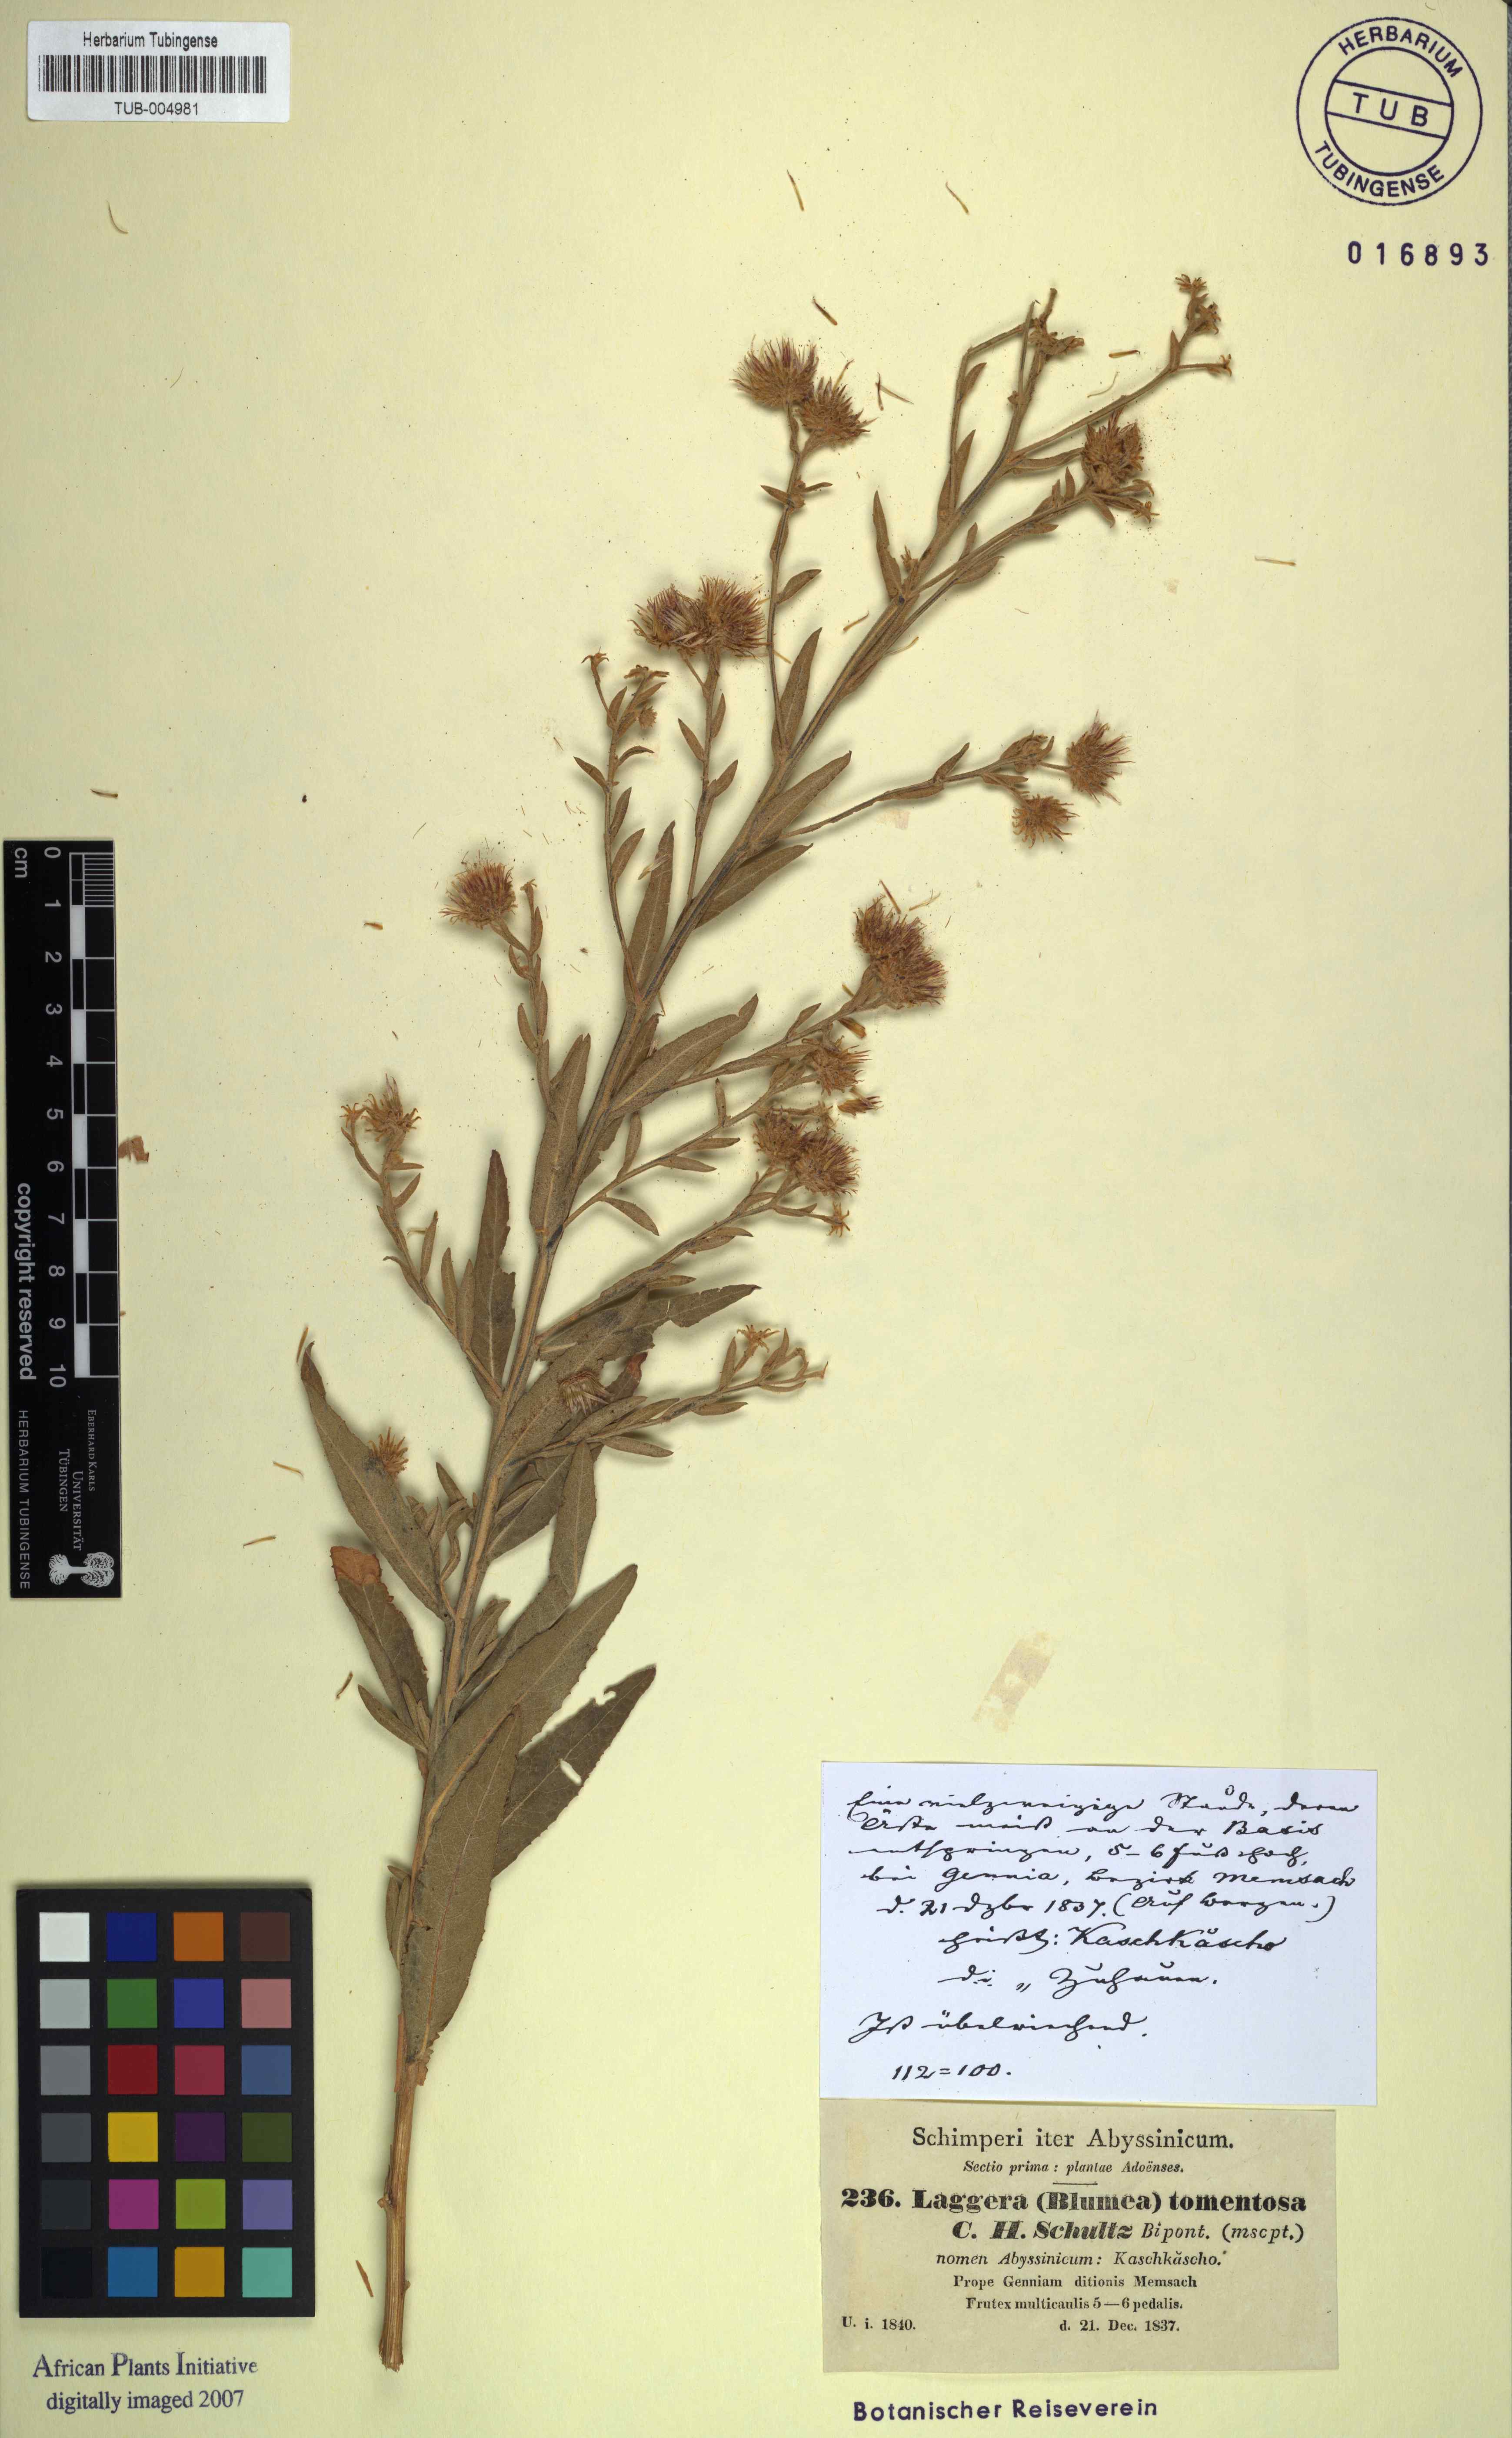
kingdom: Plantae
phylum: Tracheophyta
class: Magnoliopsida
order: Asterales
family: Asteraceae
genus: Laggera
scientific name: Laggera tomentosa
